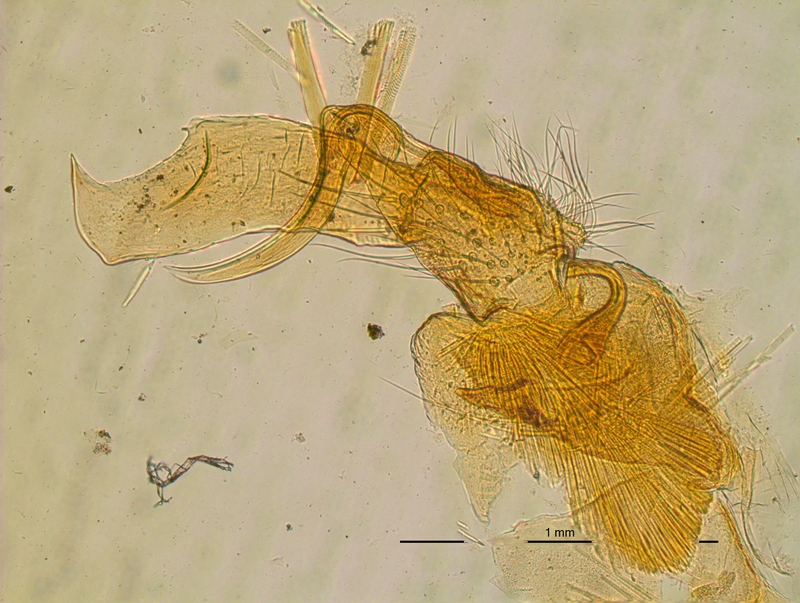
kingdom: Animalia
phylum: Arthropoda
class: Diplopoda
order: Polydesmida
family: Chelodesmidae
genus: Chondrodesmus
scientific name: Chondrodesmus voglii
